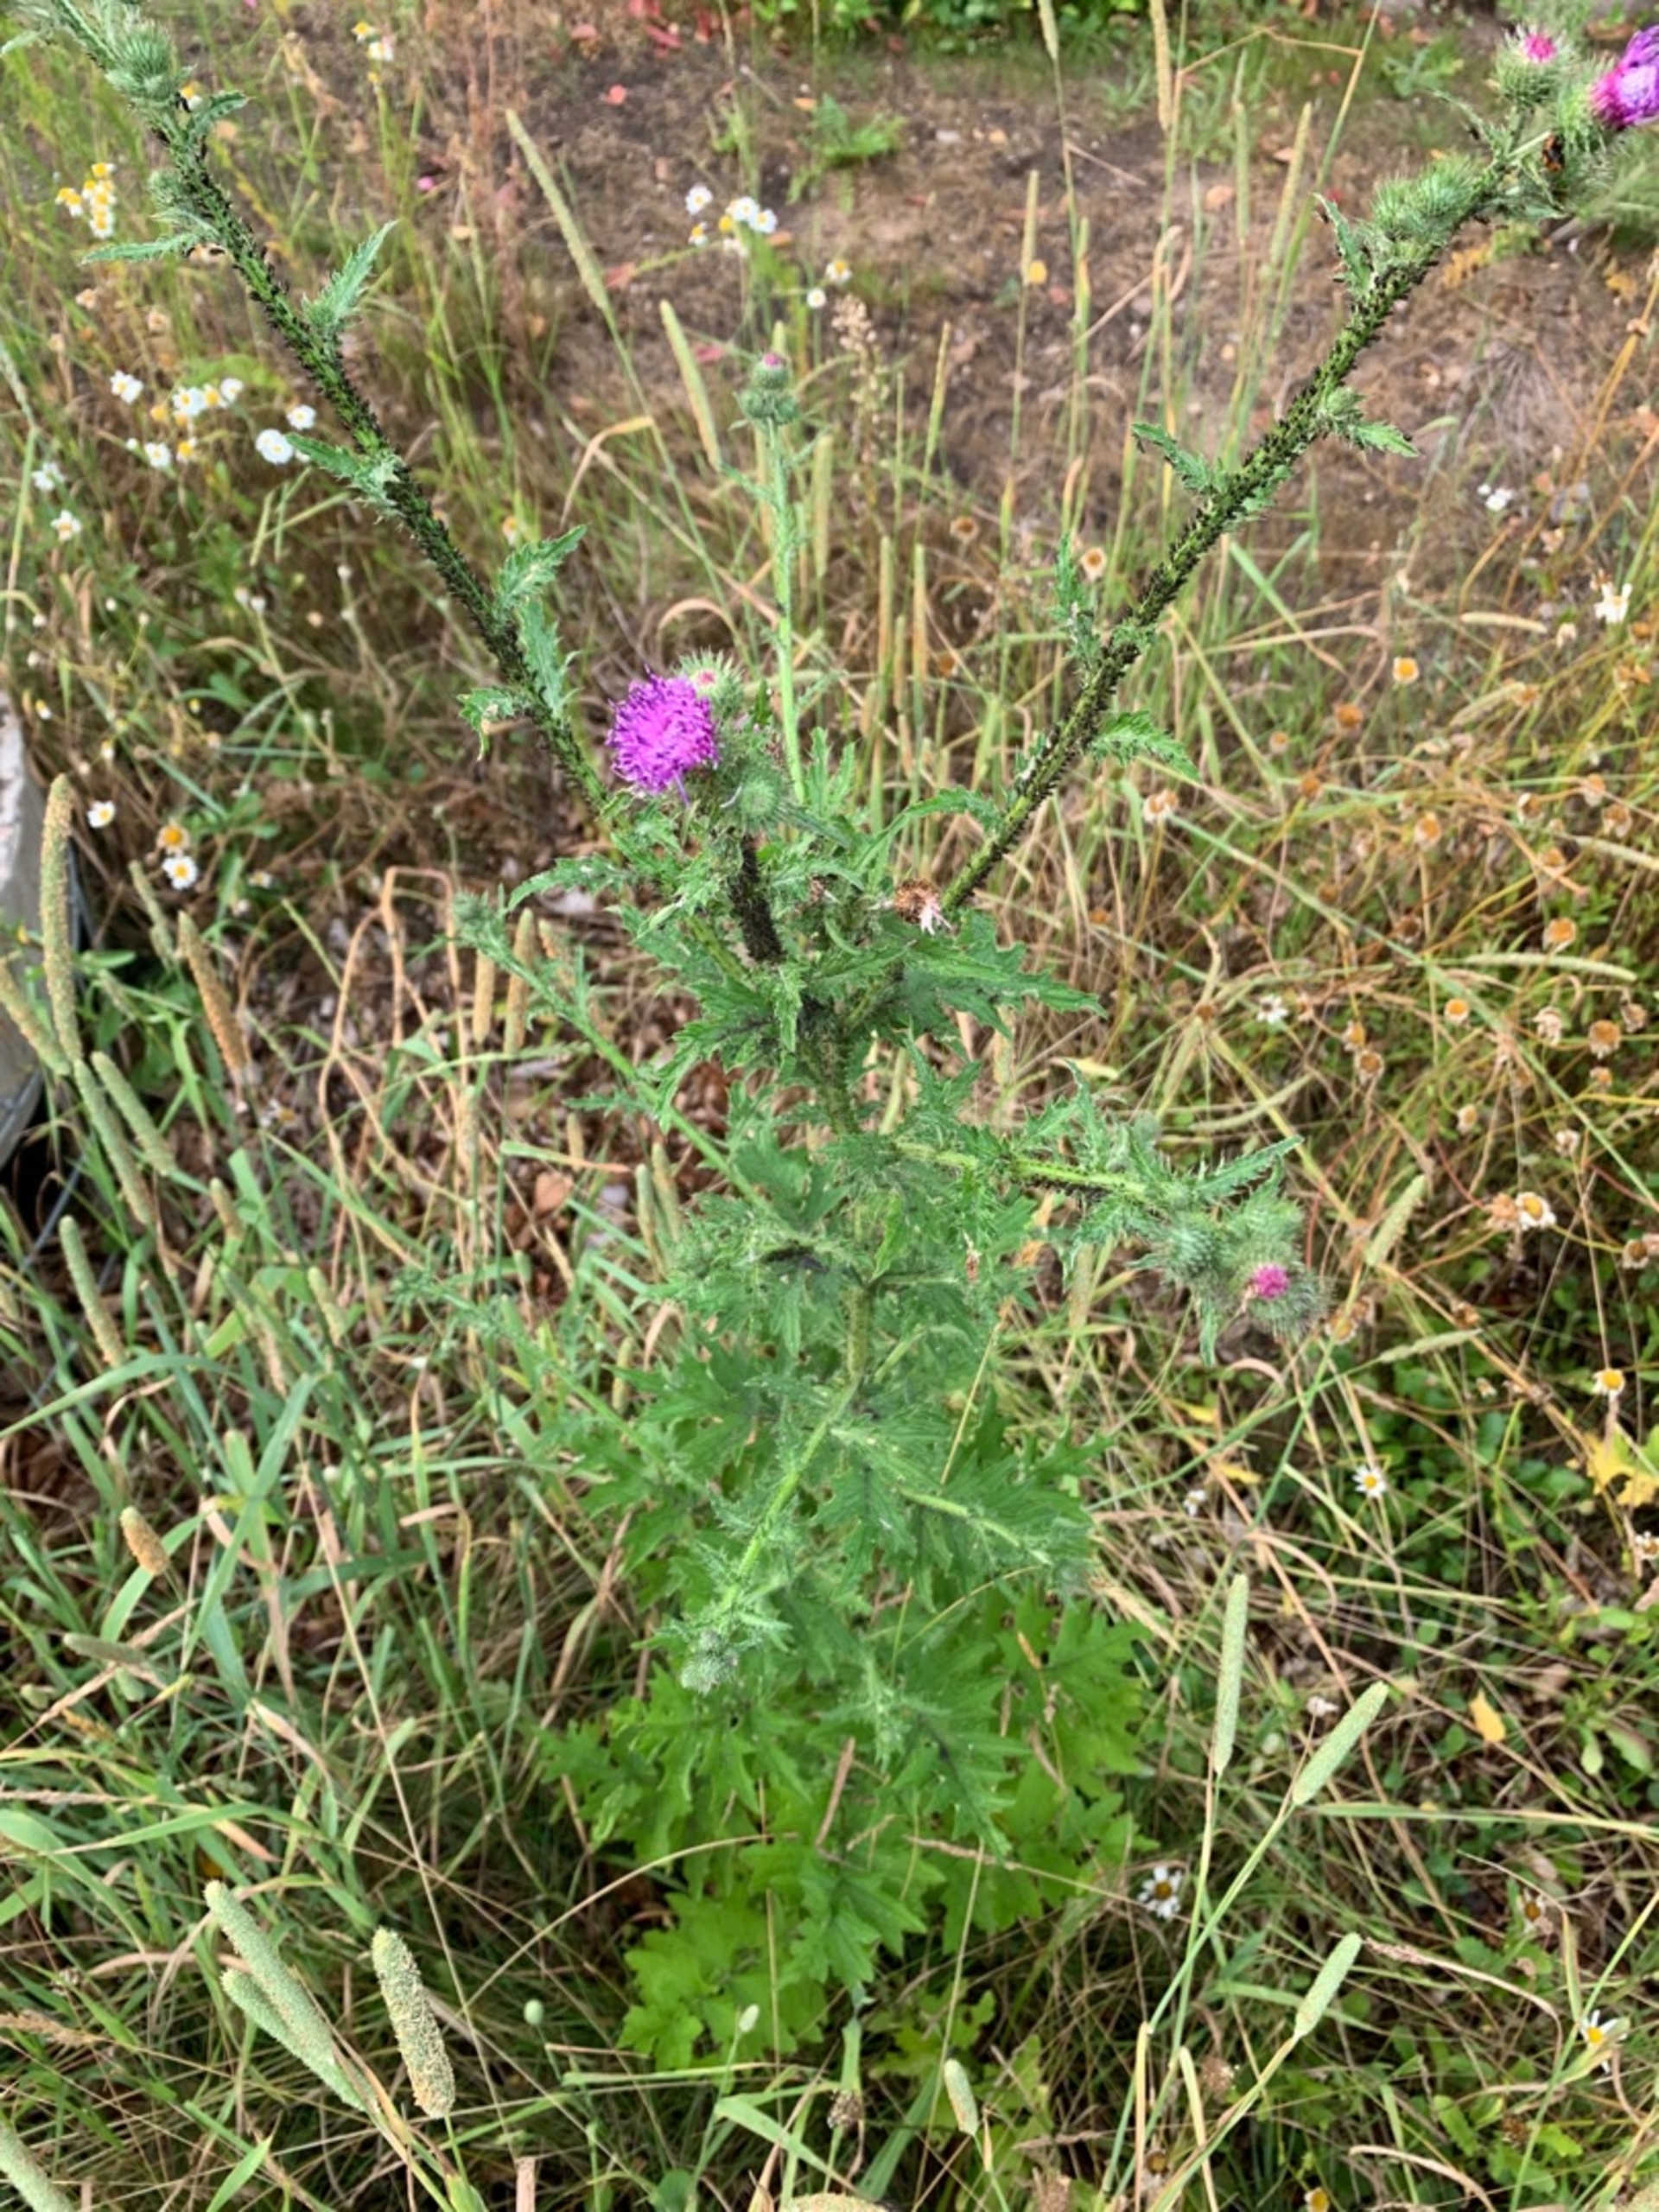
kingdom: Plantae
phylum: Tracheophyta
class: Magnoliopsida
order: Asterales
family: Asteraceae
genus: Carduus
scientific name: Carduus crispus
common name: Kruset tidsel
